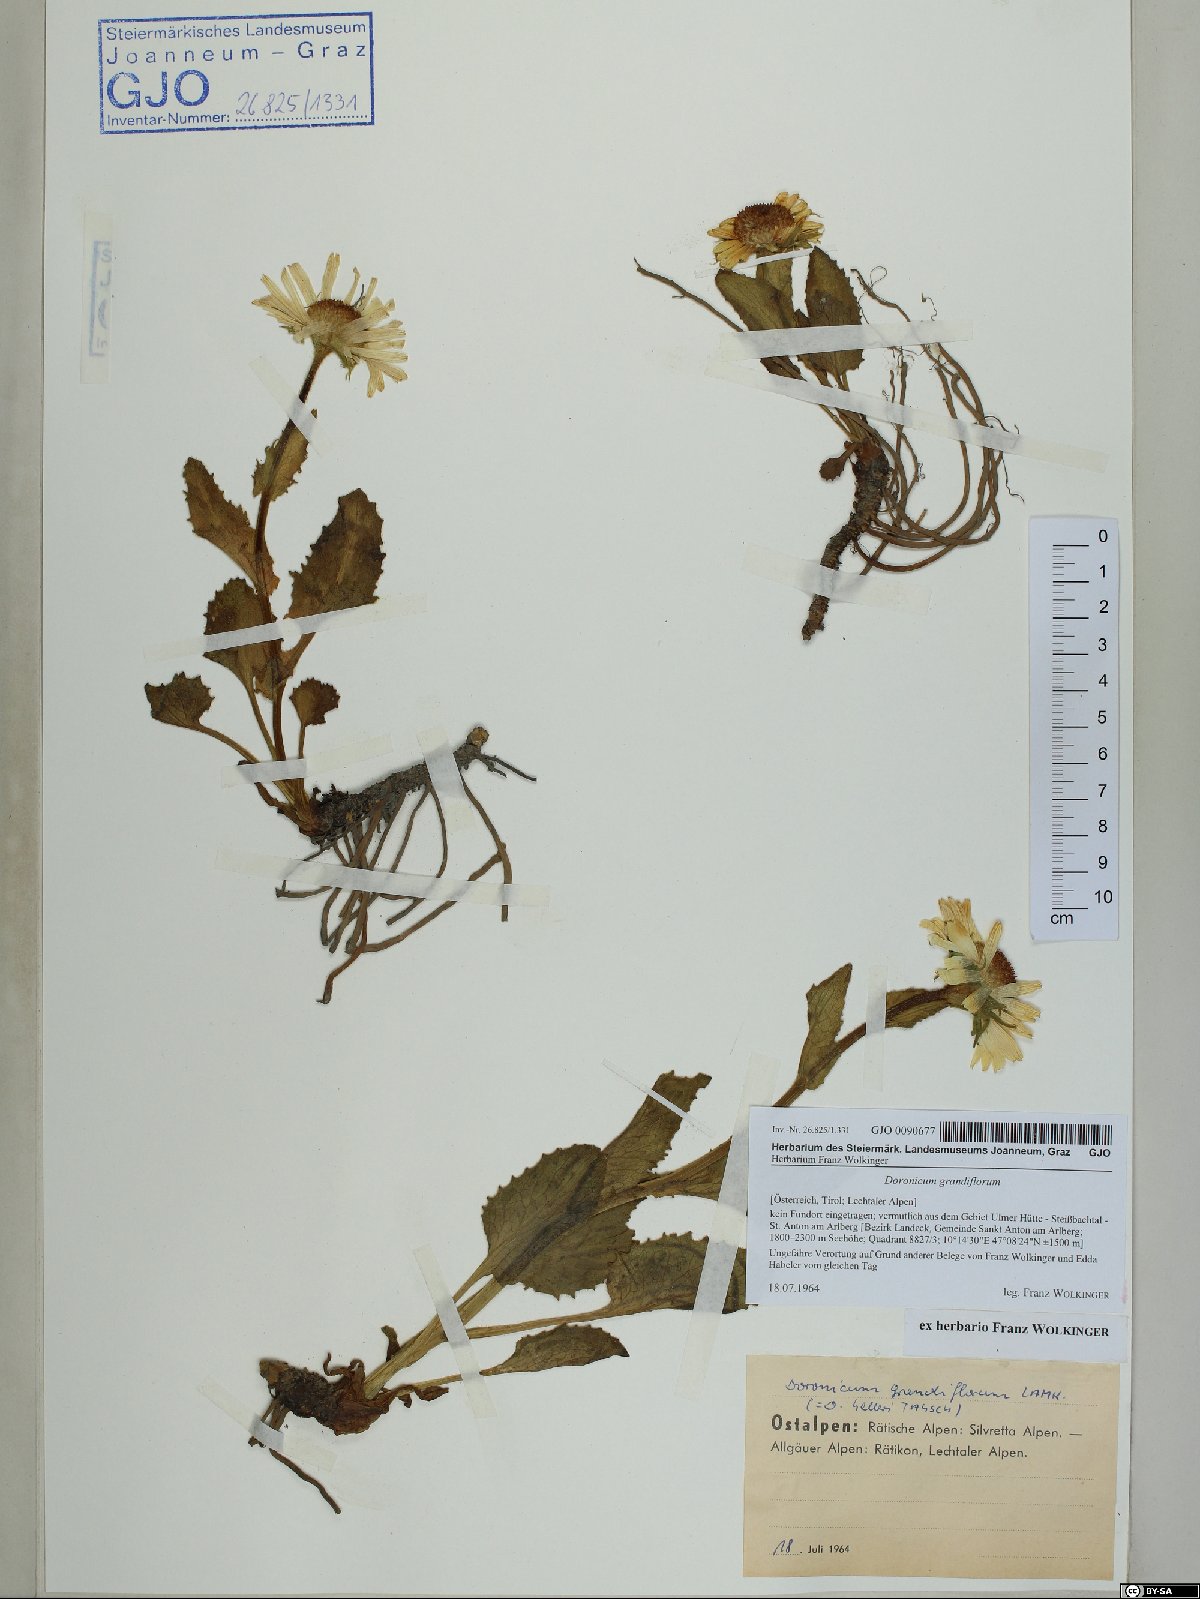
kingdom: Plantae
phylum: Tracheophyta
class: Magnoliopsida
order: Asterales
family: Asteraceae
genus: Doronicum
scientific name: Doronicum grandiflorum
